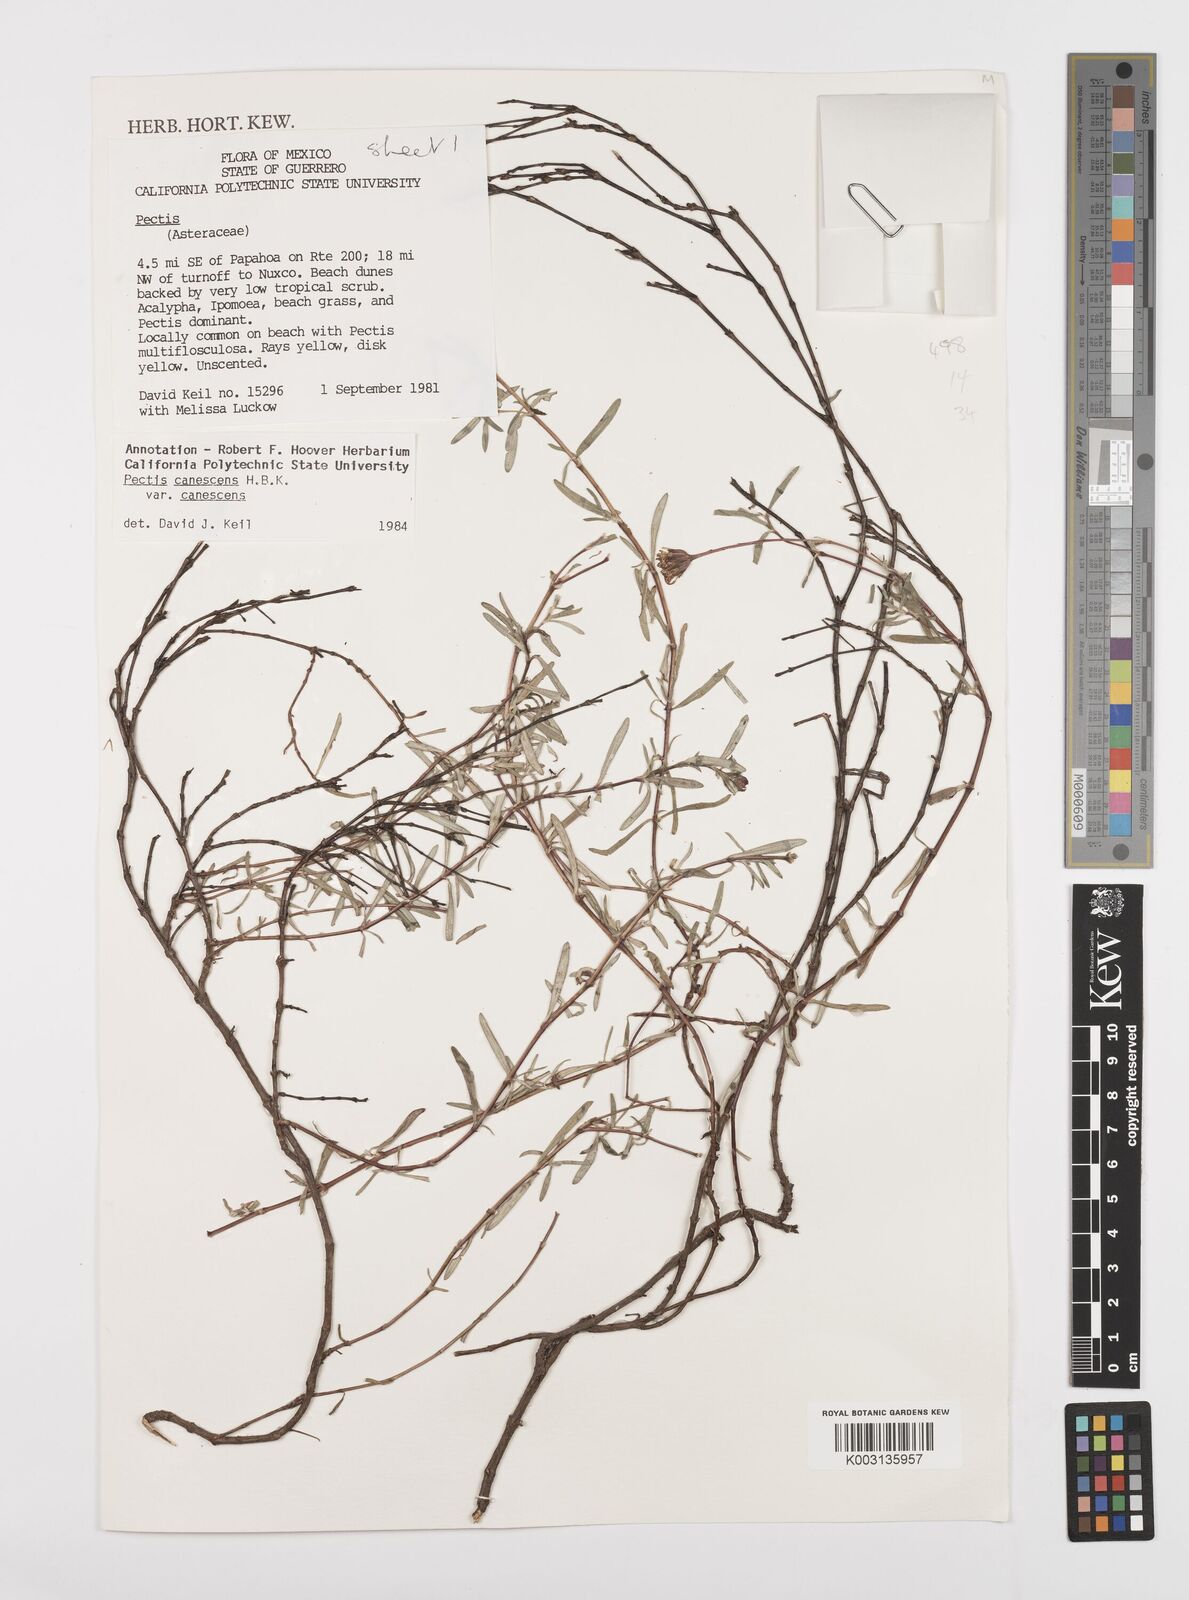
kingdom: Plantae
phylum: Tracheophyta
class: Magnoliopsida
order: Asterales
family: Asteraceae
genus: Pectis
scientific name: Pectis canescens
